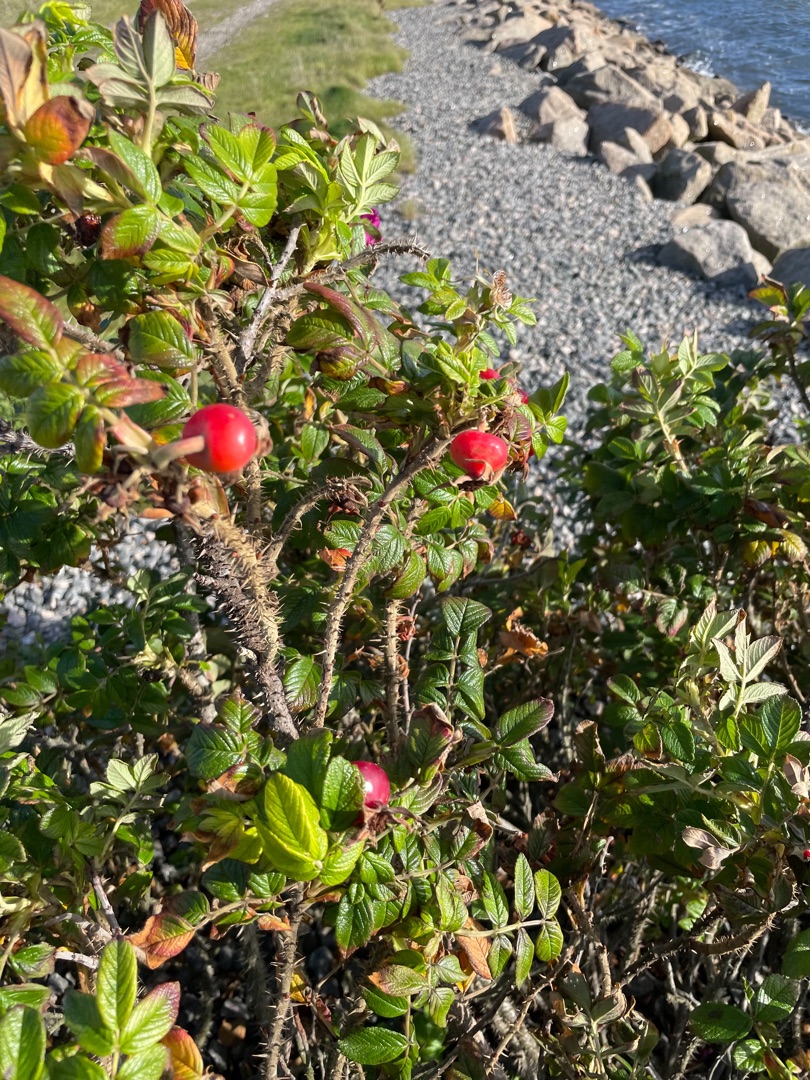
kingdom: Plantae
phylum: Tracheophyta
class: Magnoliopsida
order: Rosales
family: Rosaceae
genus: Rosa
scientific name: Rosa rugosa
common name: Rynket rose
